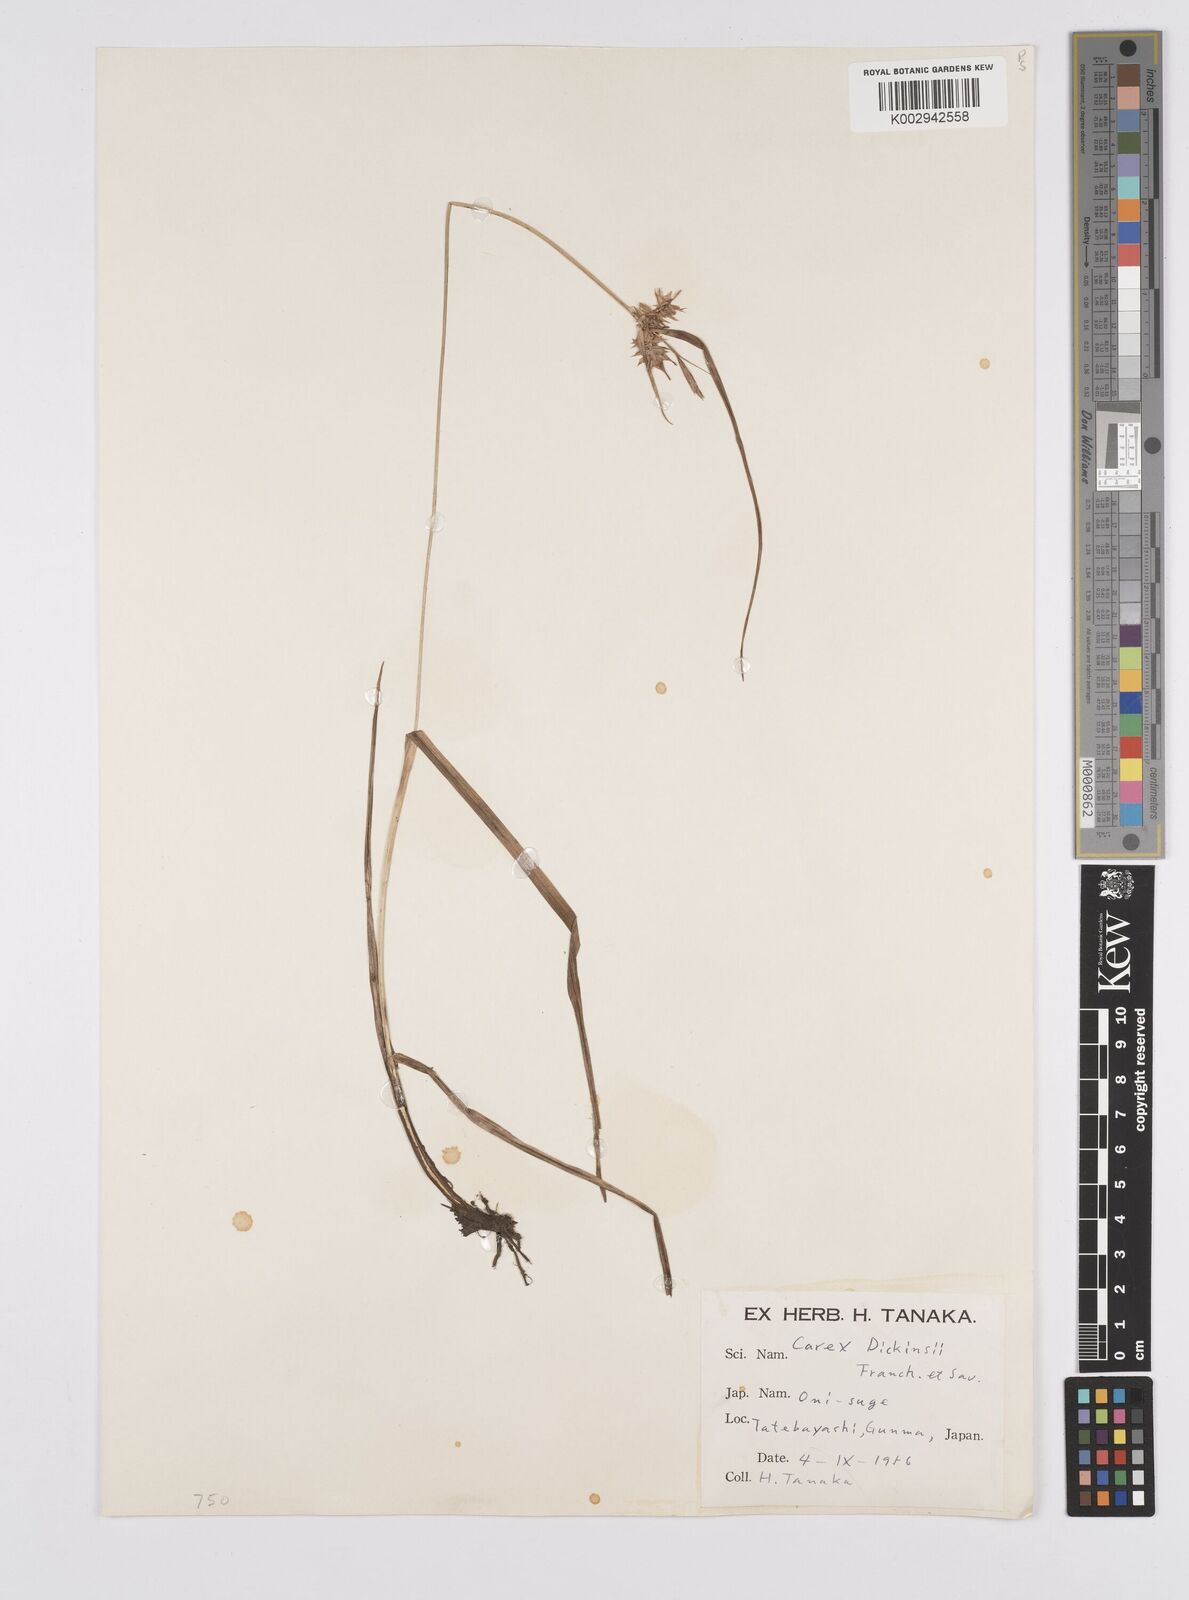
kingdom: Plantae
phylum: Tracheophyta
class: Liliopsida
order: Poales
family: Cyperaceae
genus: Carex
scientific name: Carex dickinsii
